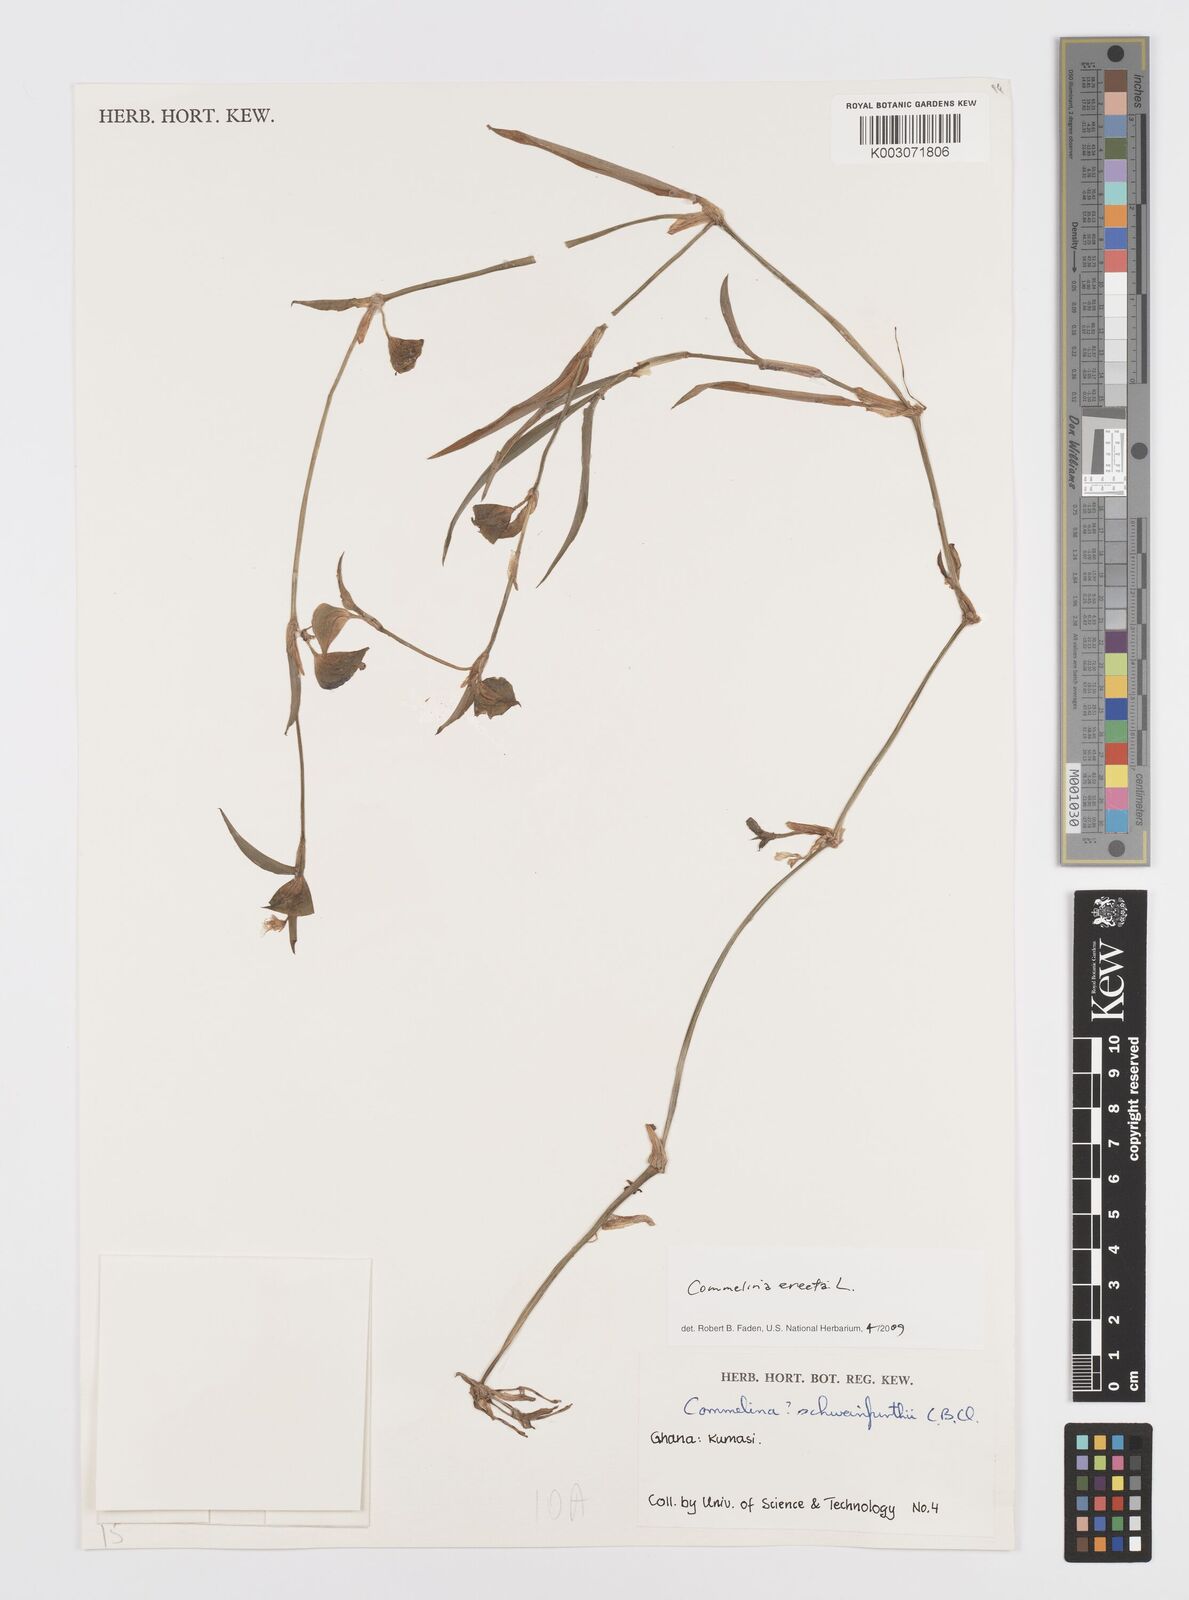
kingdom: Plantae
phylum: Tracheophyta
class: Liliopsida
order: Commelinales
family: Commelinaceae
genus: Commelina
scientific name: Commelina erecta
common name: Blousel blommetjie
